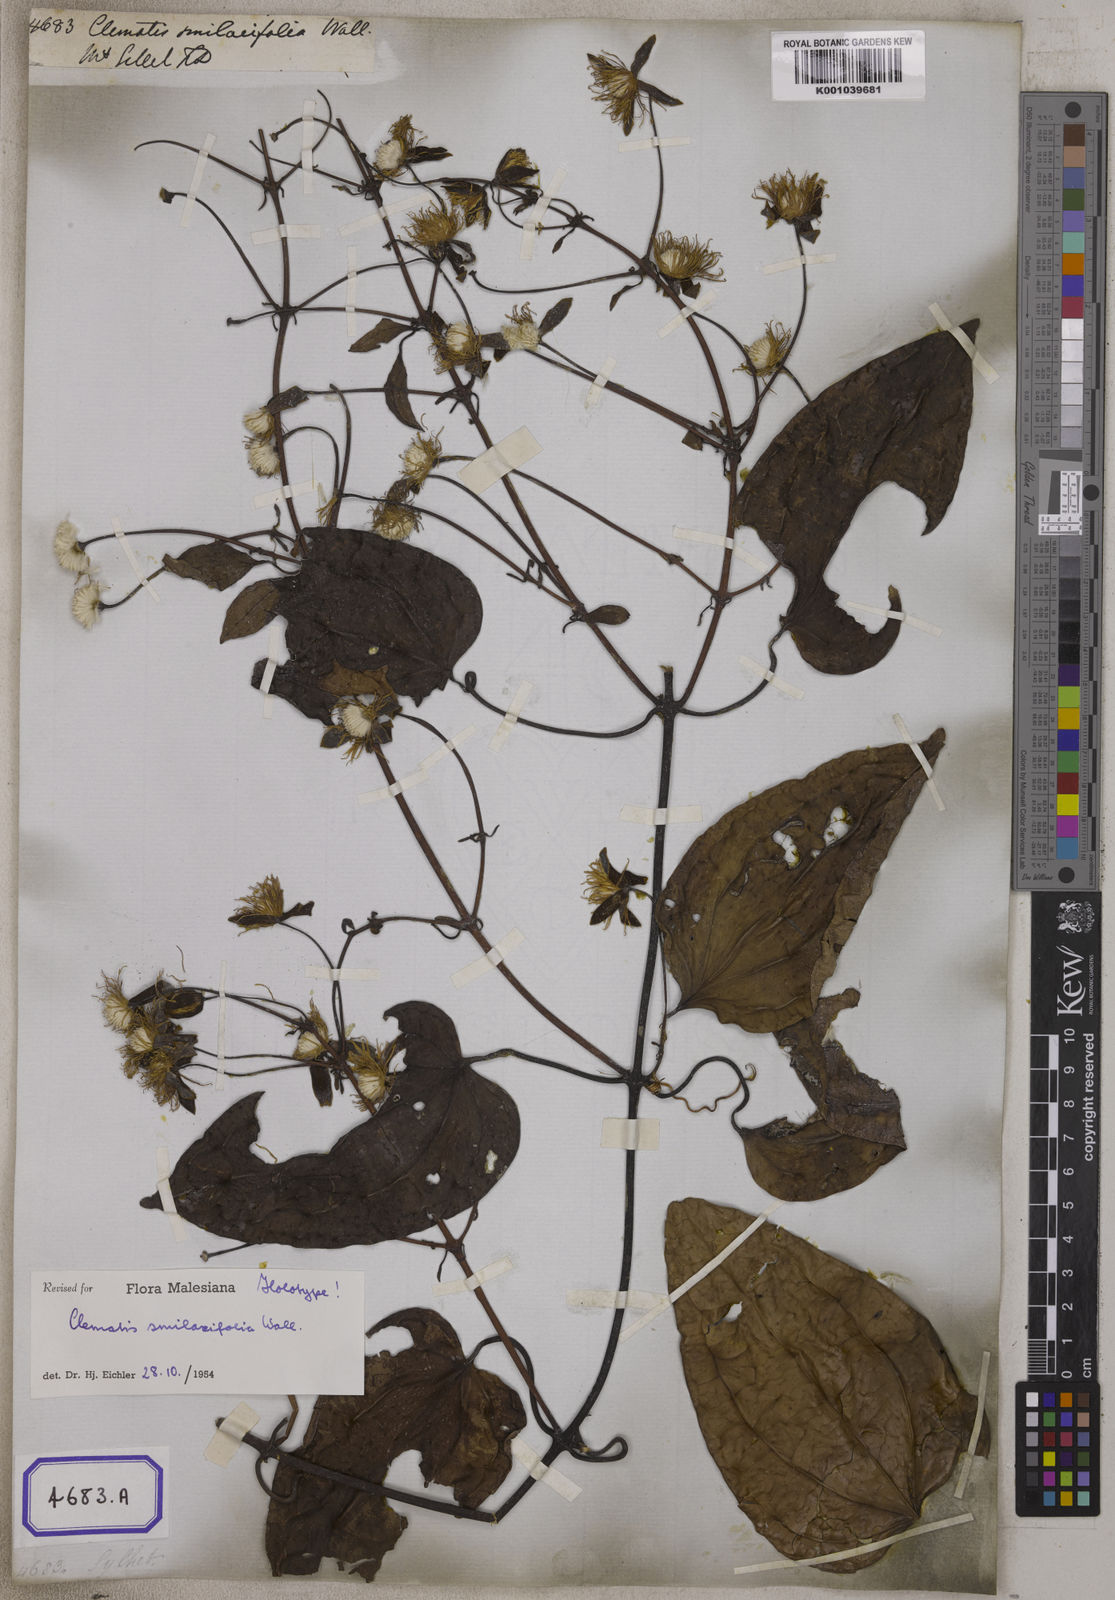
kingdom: Plantae
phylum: Tracheophyta
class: Magnoliopsida
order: Ranunculales
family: Ranunculaceae
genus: Clematis
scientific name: Clematis smilacifolia
